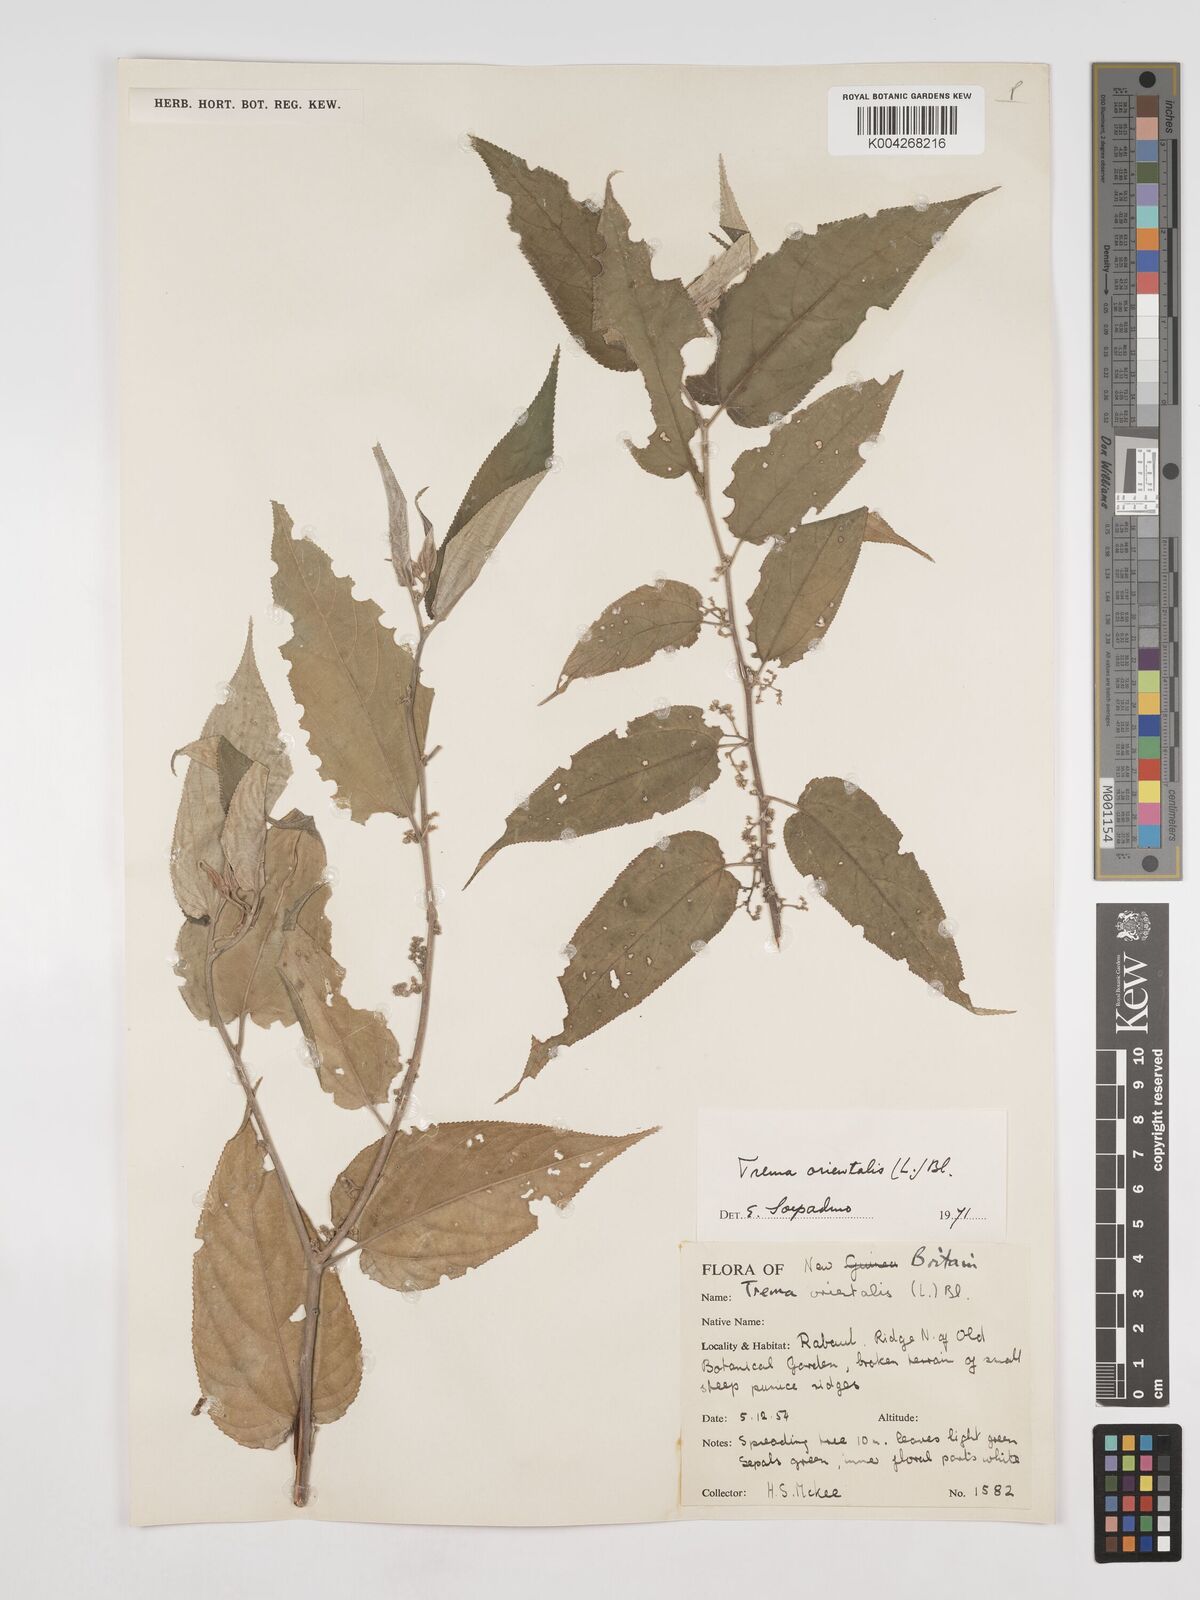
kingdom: Plantae
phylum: Tracheophyta
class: Magnoliopsida
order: Rosales
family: Cannabaceae
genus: Trema
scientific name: Trema orientale
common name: Indian charcoal tree
